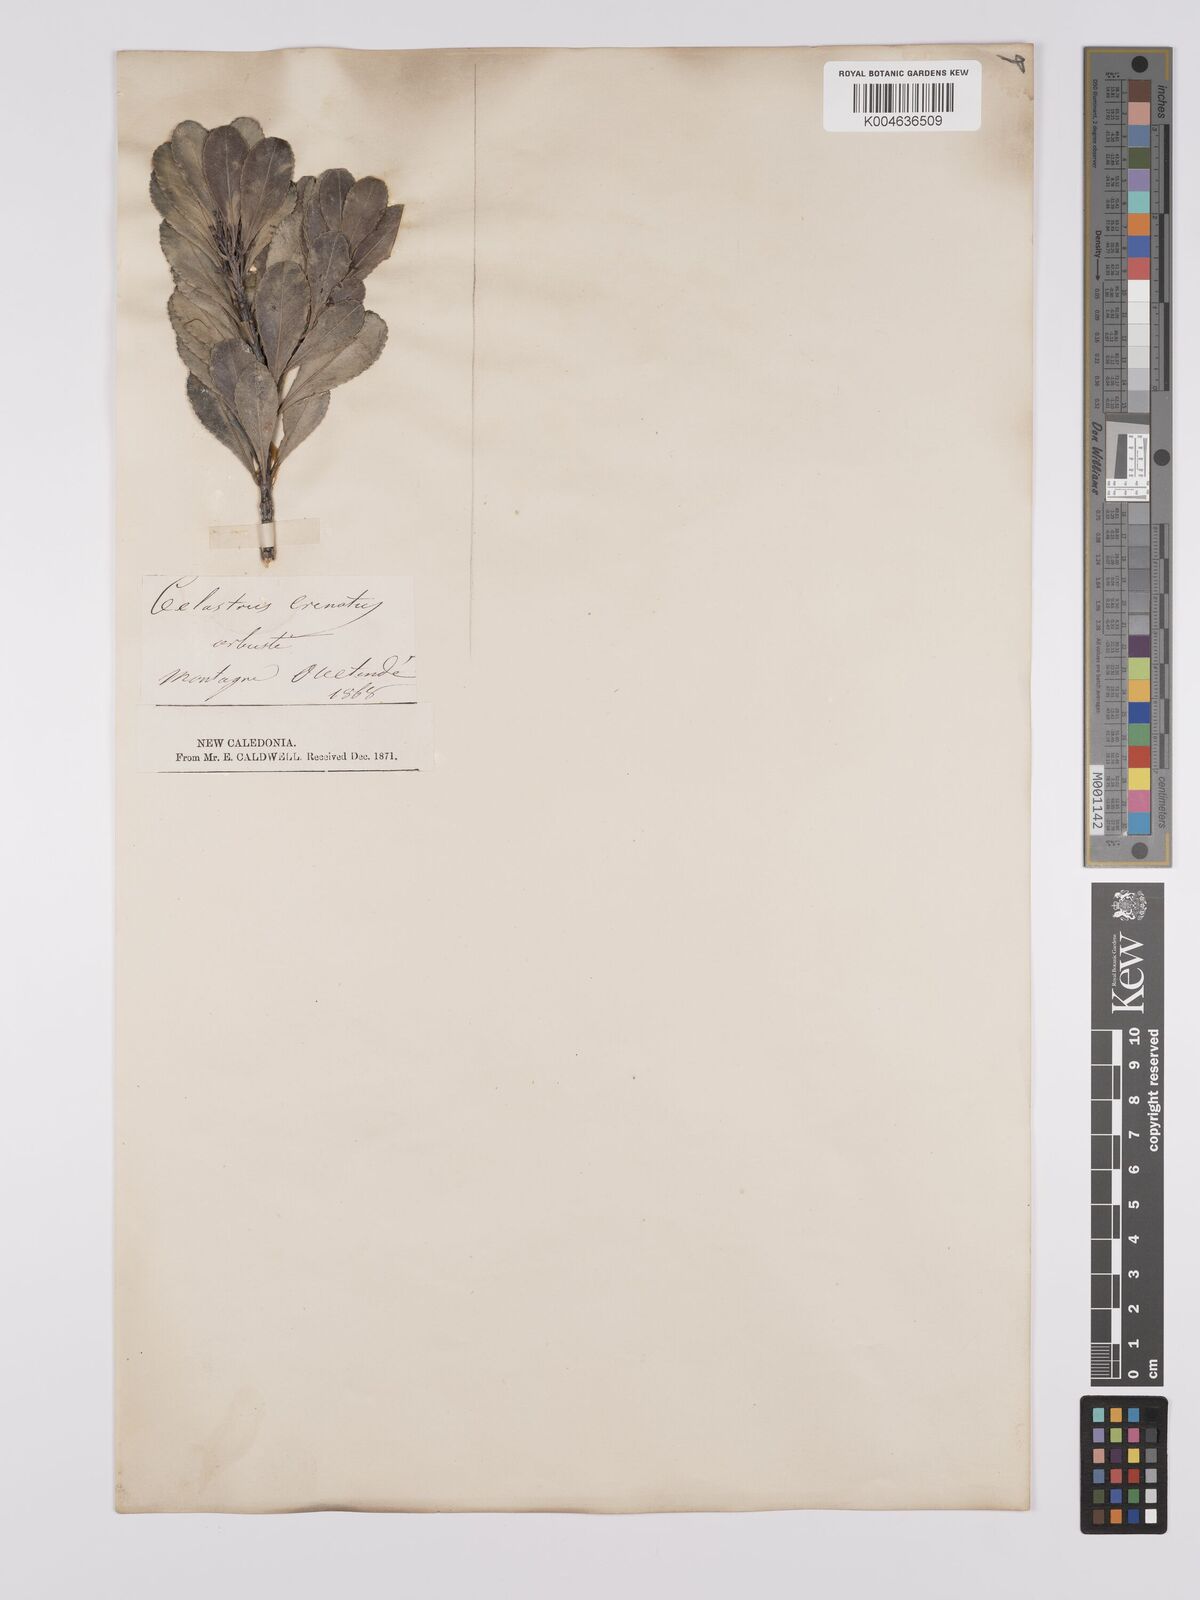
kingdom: Plantae
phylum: Tracheophyta
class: Magnoliopsida
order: Celastrales
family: Celastraceae
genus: Celastrus
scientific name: Celastrus
